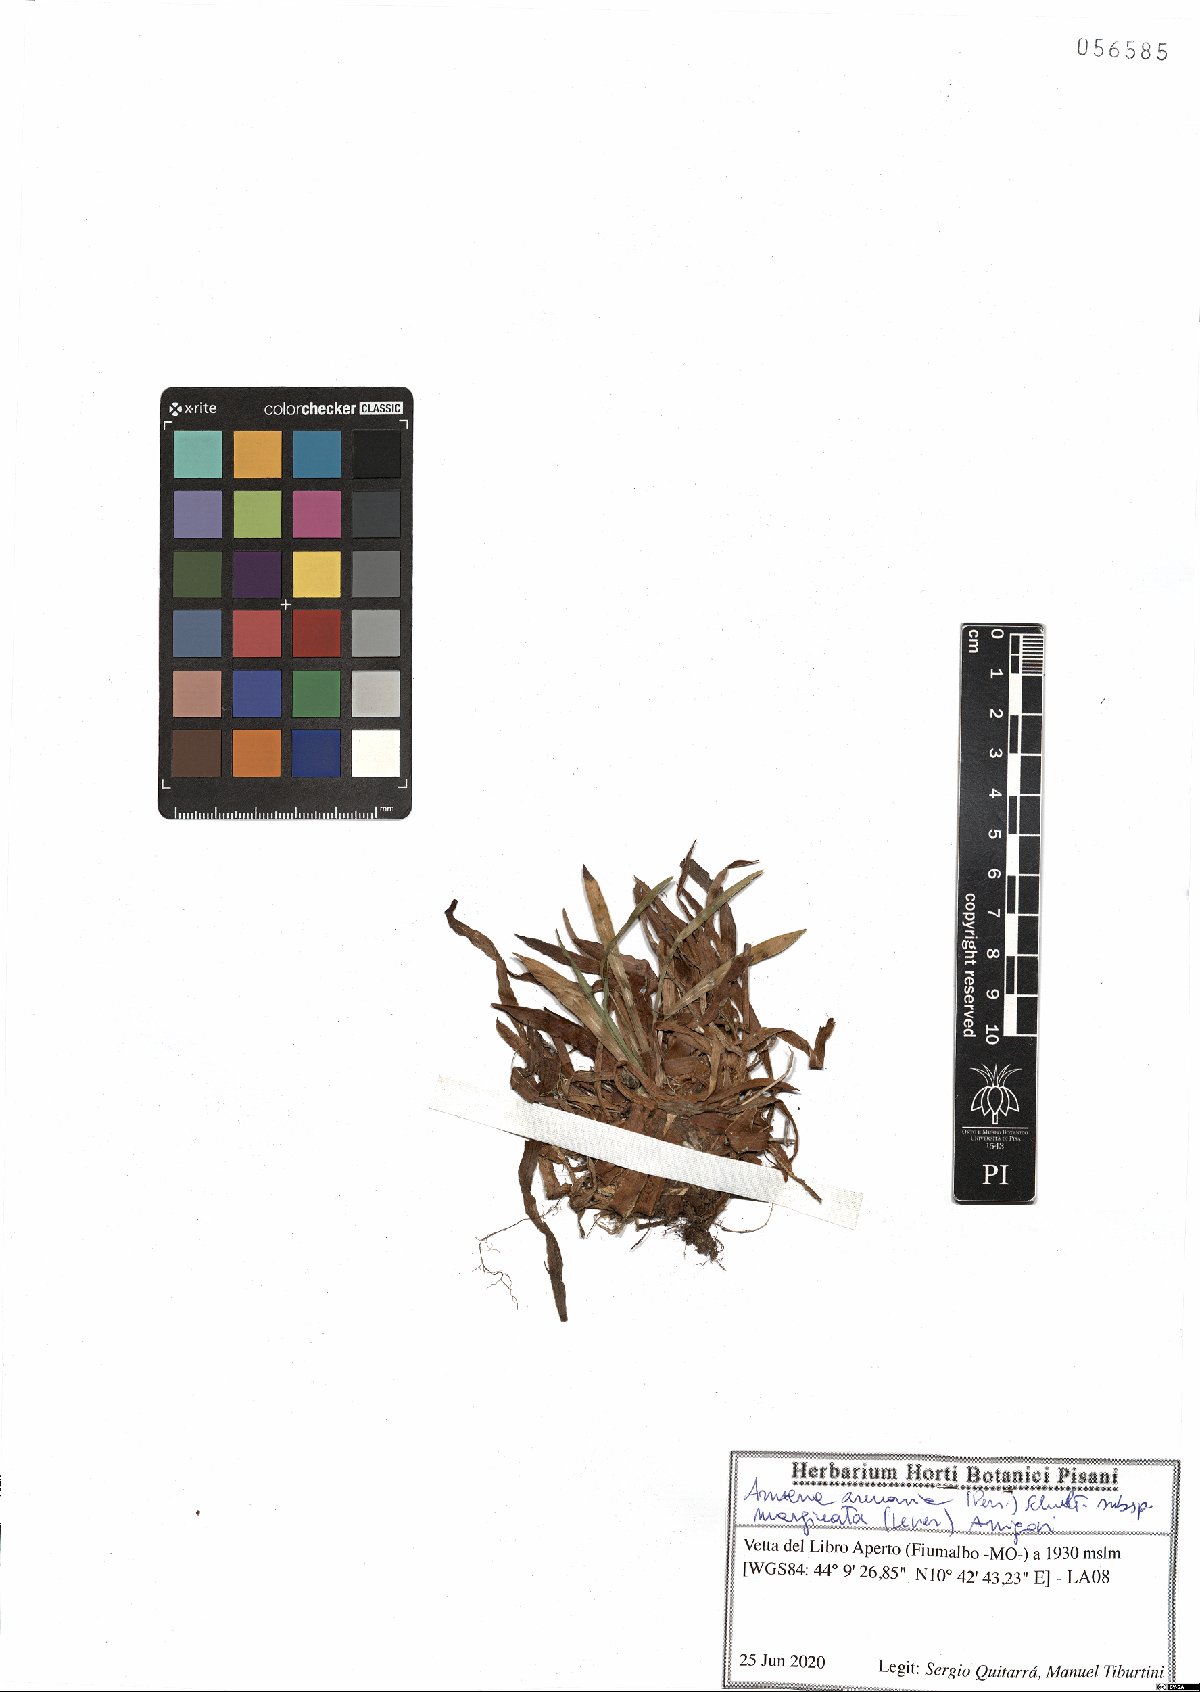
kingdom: Plantae
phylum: Tracheophyta
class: Magnoliopsida
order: Caryophyllales
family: Plumbaginaceae
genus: Armeria
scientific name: Armeria arenaria
